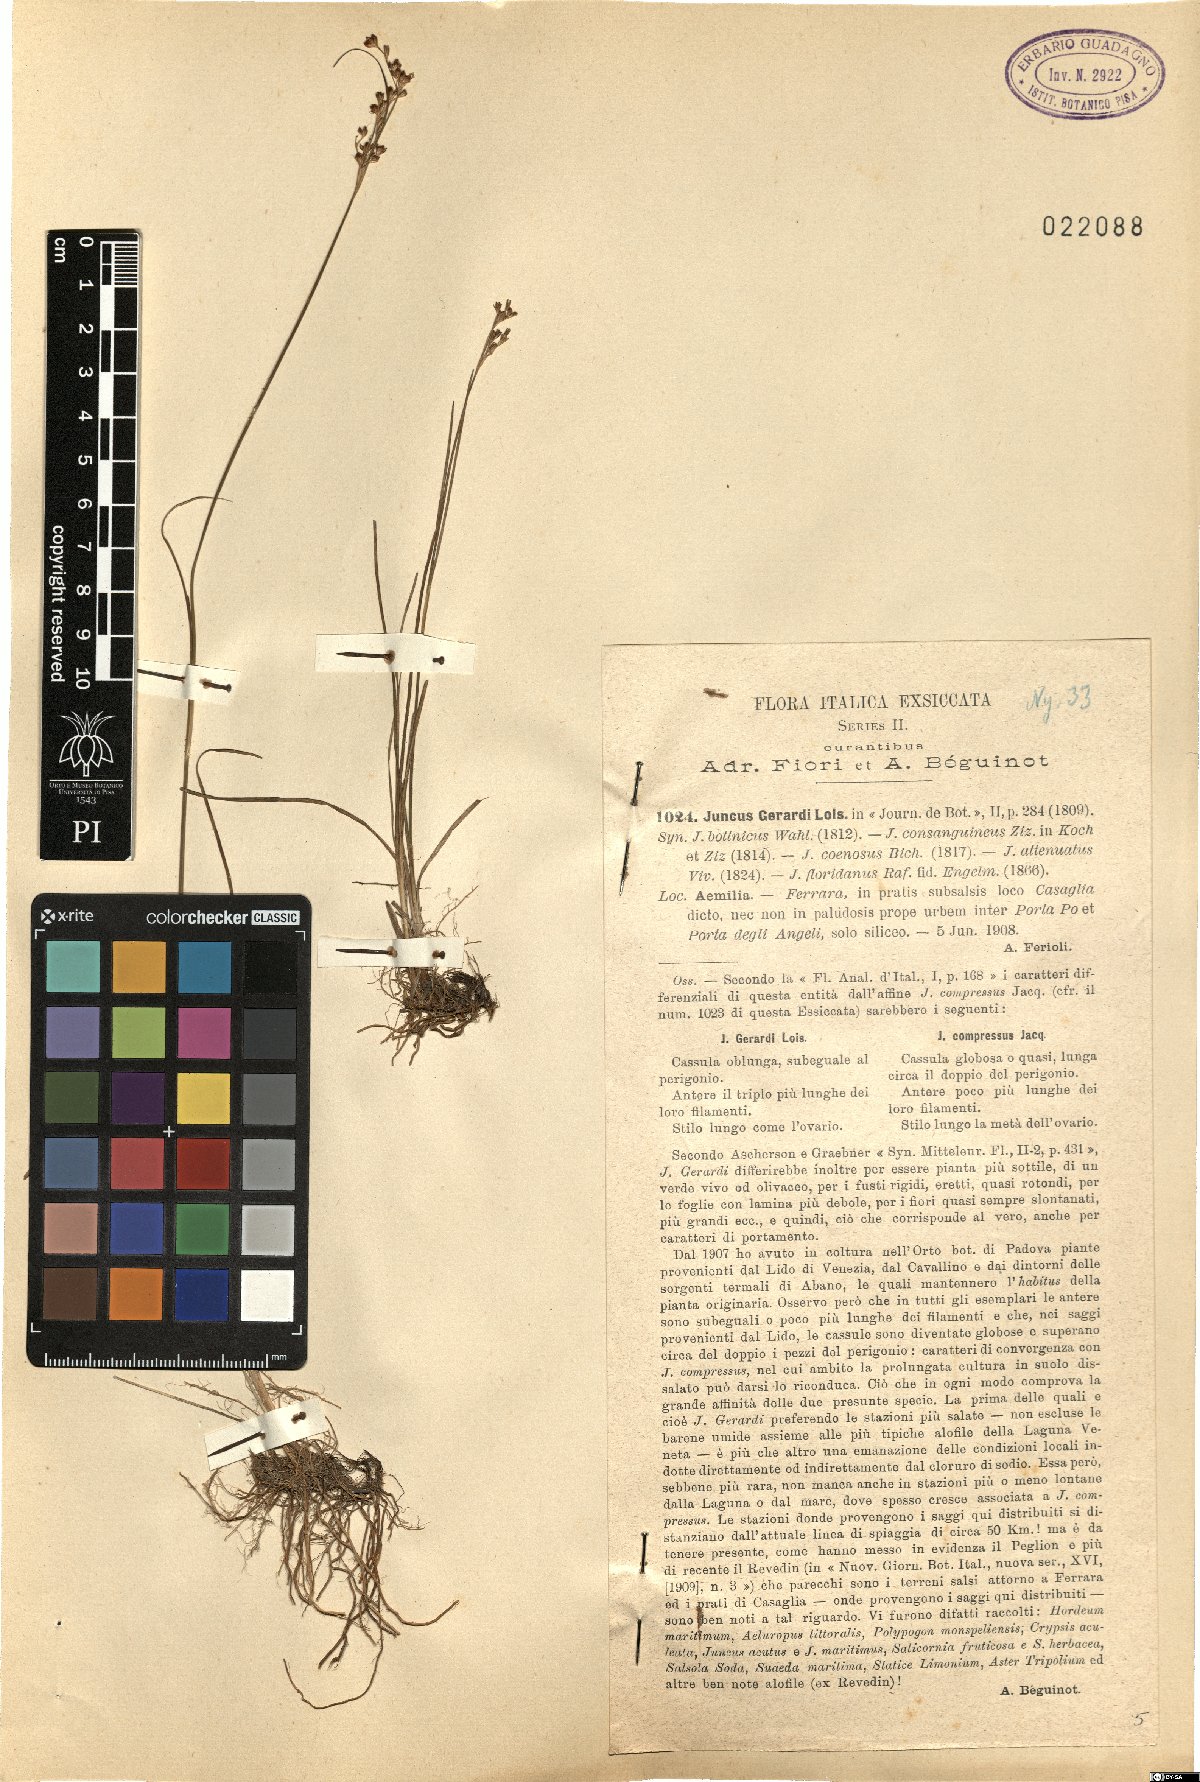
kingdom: Plantae
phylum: Tracheophyta
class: Liliopsida
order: Poales
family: Juncaceae
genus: Juncus
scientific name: Juncus gerardi
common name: Saltmarsh rush
